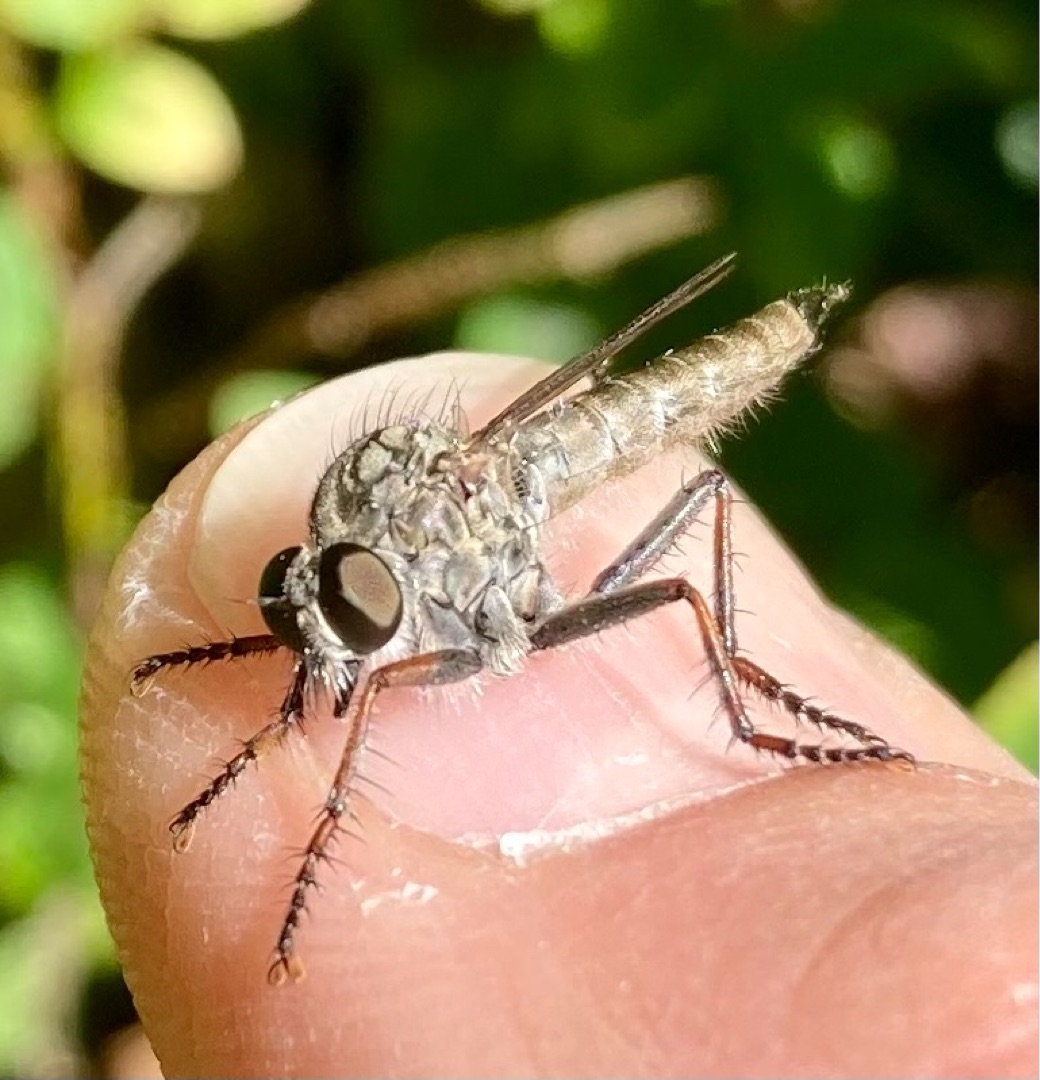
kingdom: Animalia
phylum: Arthropoda
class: Insecta
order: Diptera
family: Asilidae
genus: Machimus
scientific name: Machimus atricapillus
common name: Sort hårrovflue
